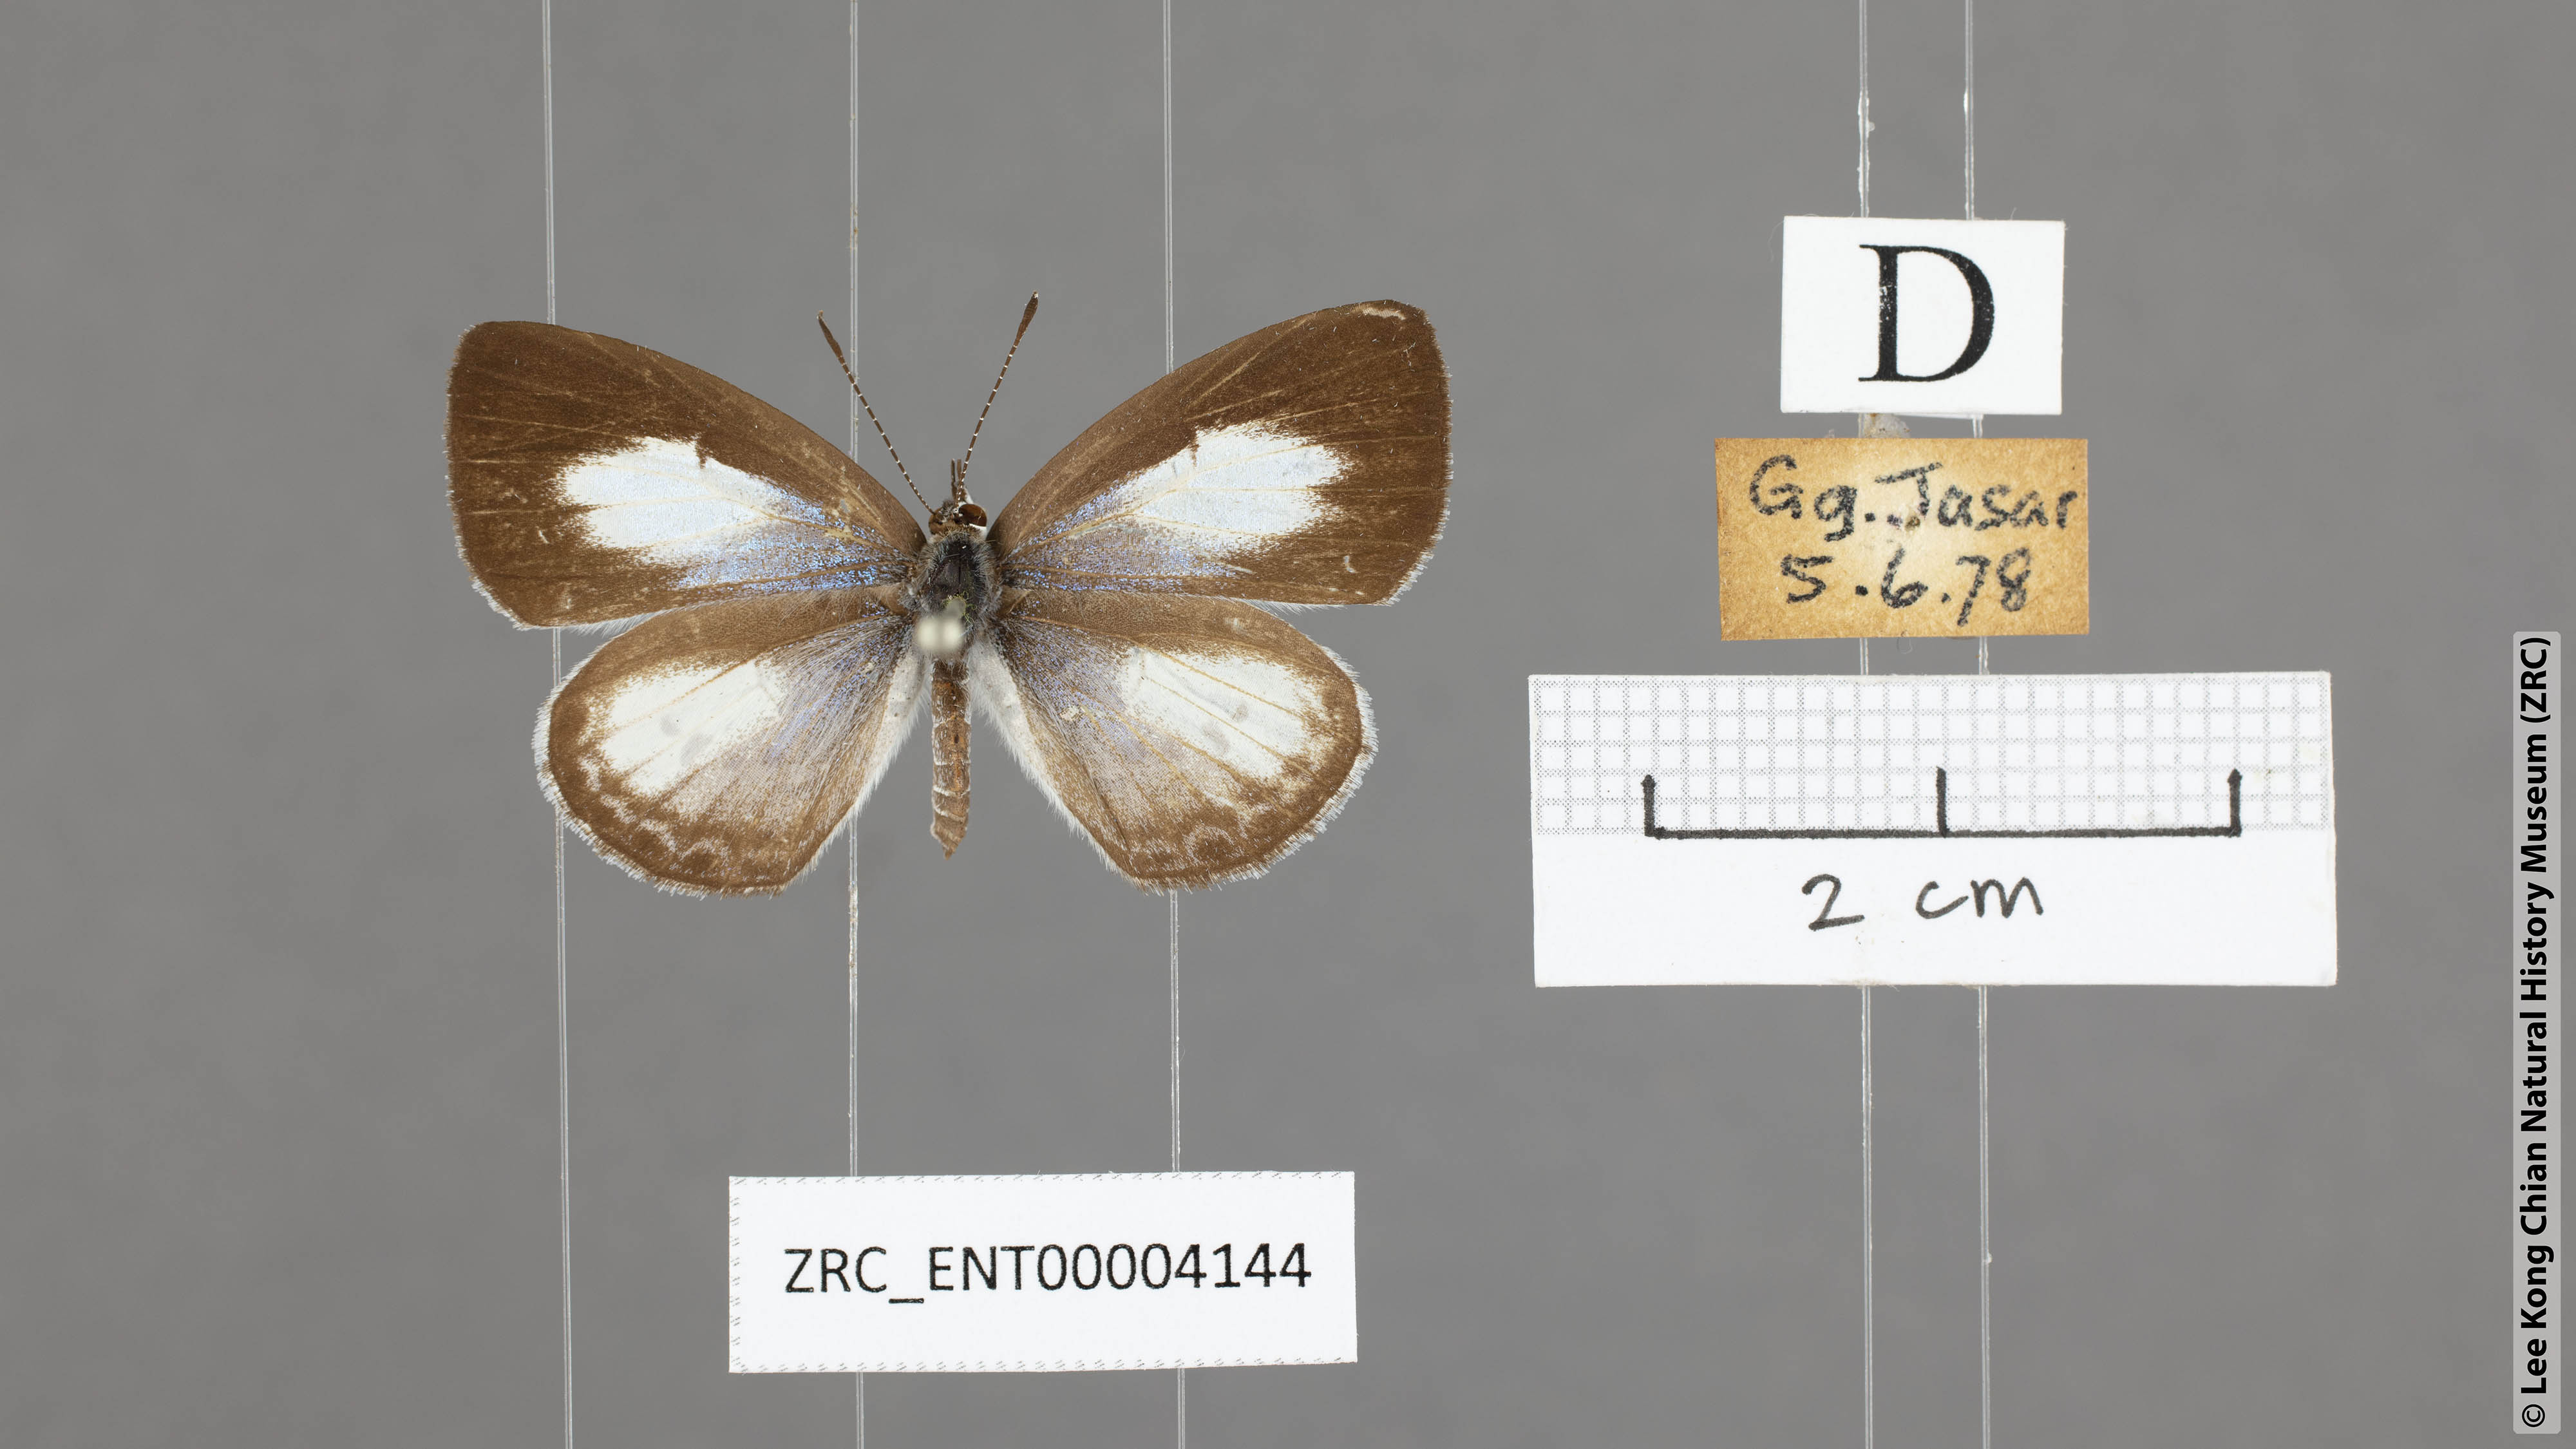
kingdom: Animalia
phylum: Arthropoda
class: Insecta
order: Lepidoptera
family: Lycaenidae
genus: Lycaenopsis
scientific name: Lycaenopsis marginata
